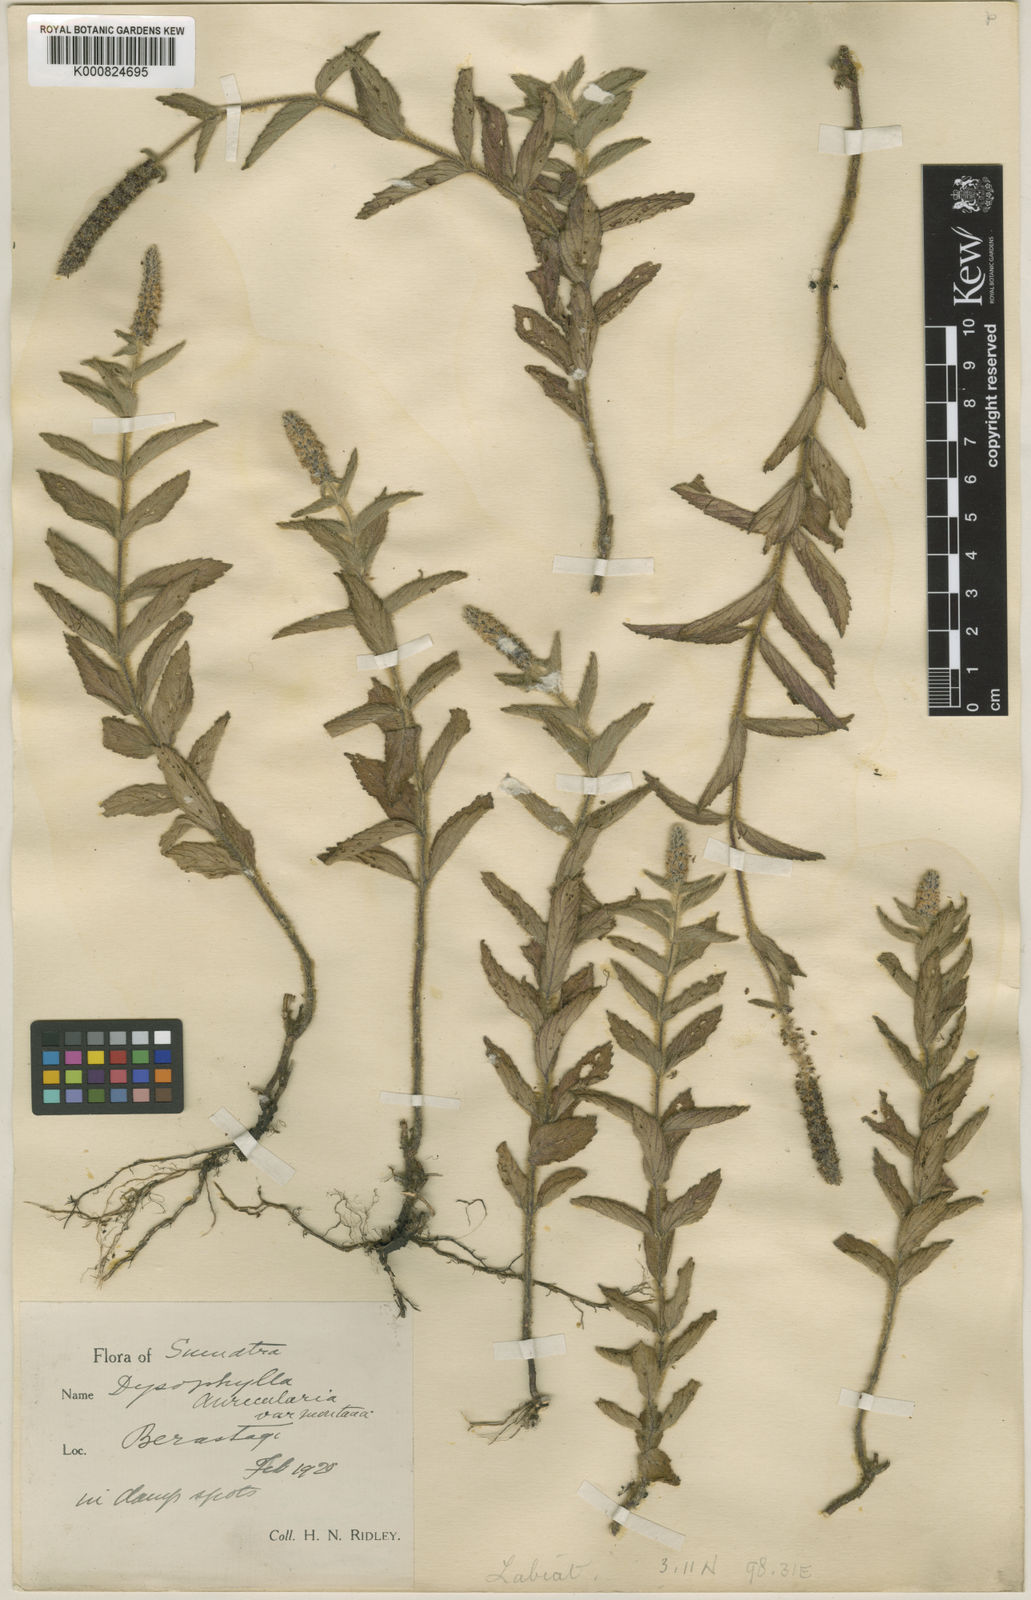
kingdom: Plantae
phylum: Tracheophyta
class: Magnoliopsida
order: Lamiales
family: Lamiaceae
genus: Pogostemon
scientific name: Pogostemon auricularius
